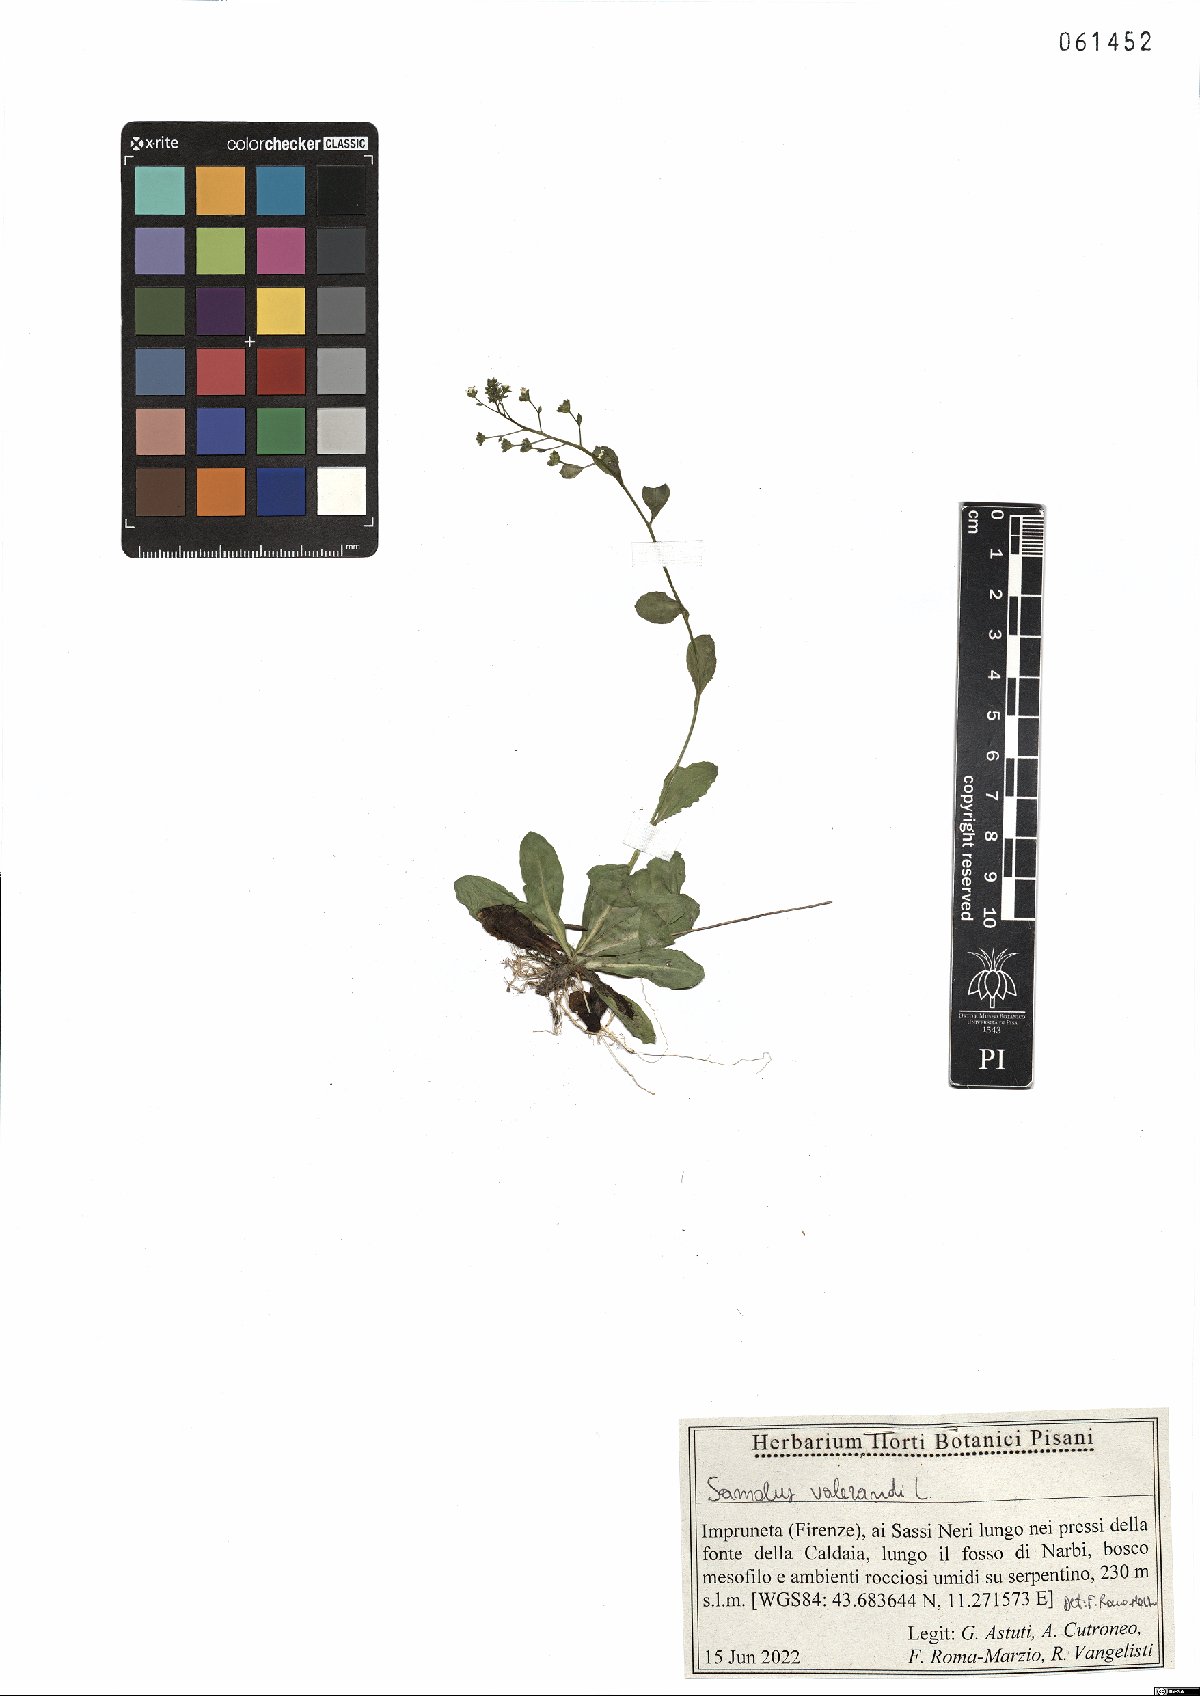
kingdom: Plantae
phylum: Tracheophyta
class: Magnoliopsida
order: Ericales
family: Primulaceae
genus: Samolus
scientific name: Samolus valerandi
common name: Brookweed
